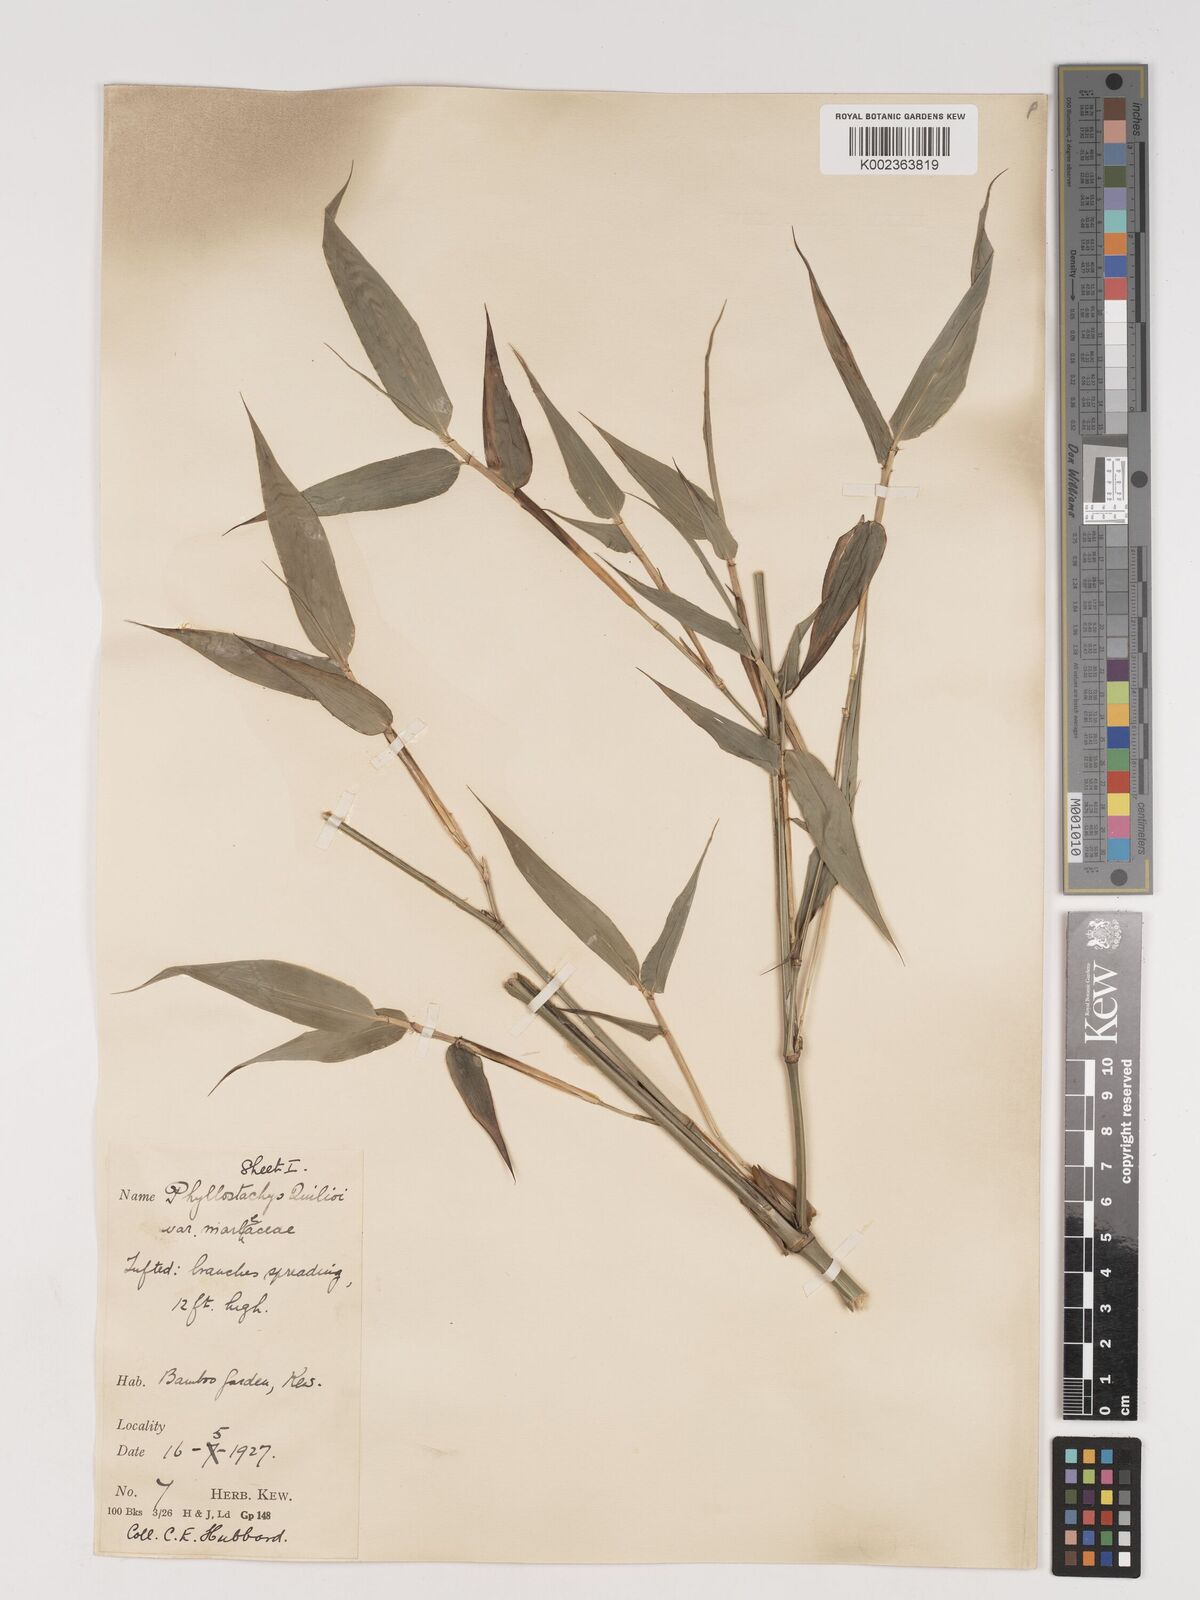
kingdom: Plantae
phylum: Tracheophyta
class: Liliopsida
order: Poales
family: Poaceae
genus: Phyllostachys
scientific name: Phyllostachys reticulata
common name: Bamboo
